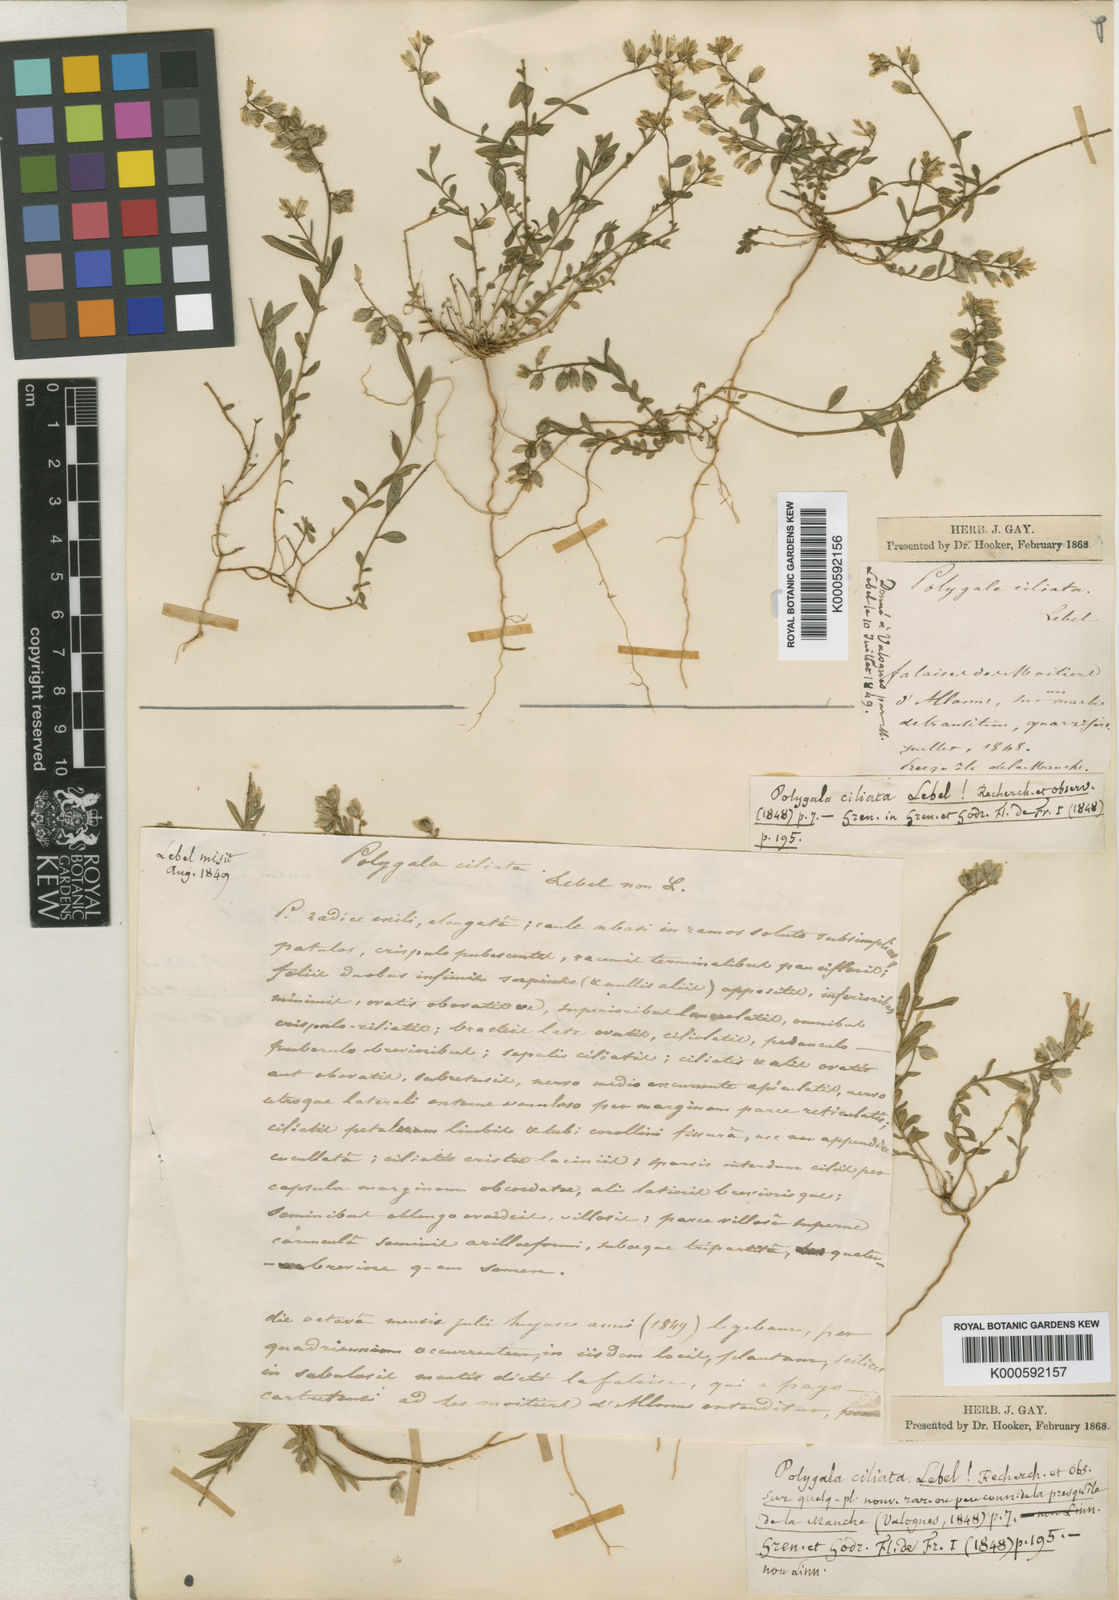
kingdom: Plantae
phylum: Tracheophyta
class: Magnoliopsida
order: Fabales
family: Polygalaceae
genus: Polygala
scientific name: Polygala vulgaris
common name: Common milkwort
